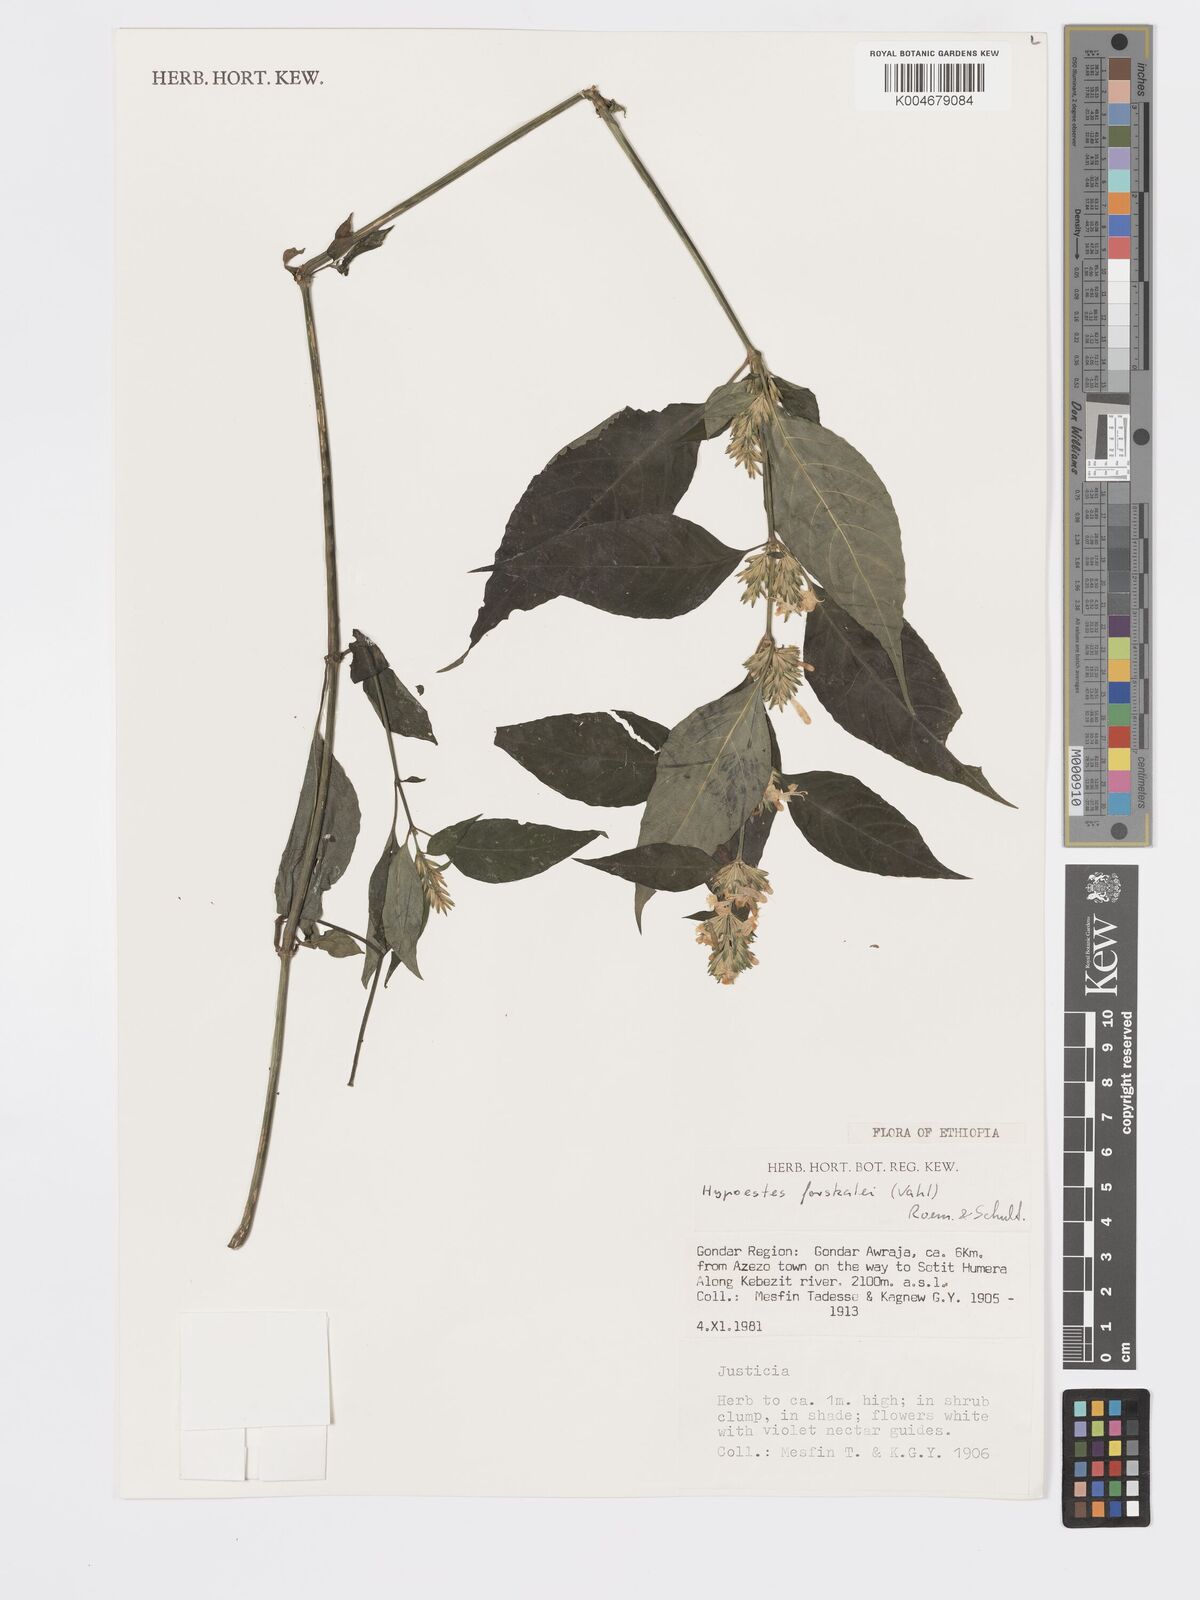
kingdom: Plantae
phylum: Tracheophyta
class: Magnoliopsida
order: Lamiales
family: Acanthaceae
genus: Hypoestes
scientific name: Hypoestes forskaolii
